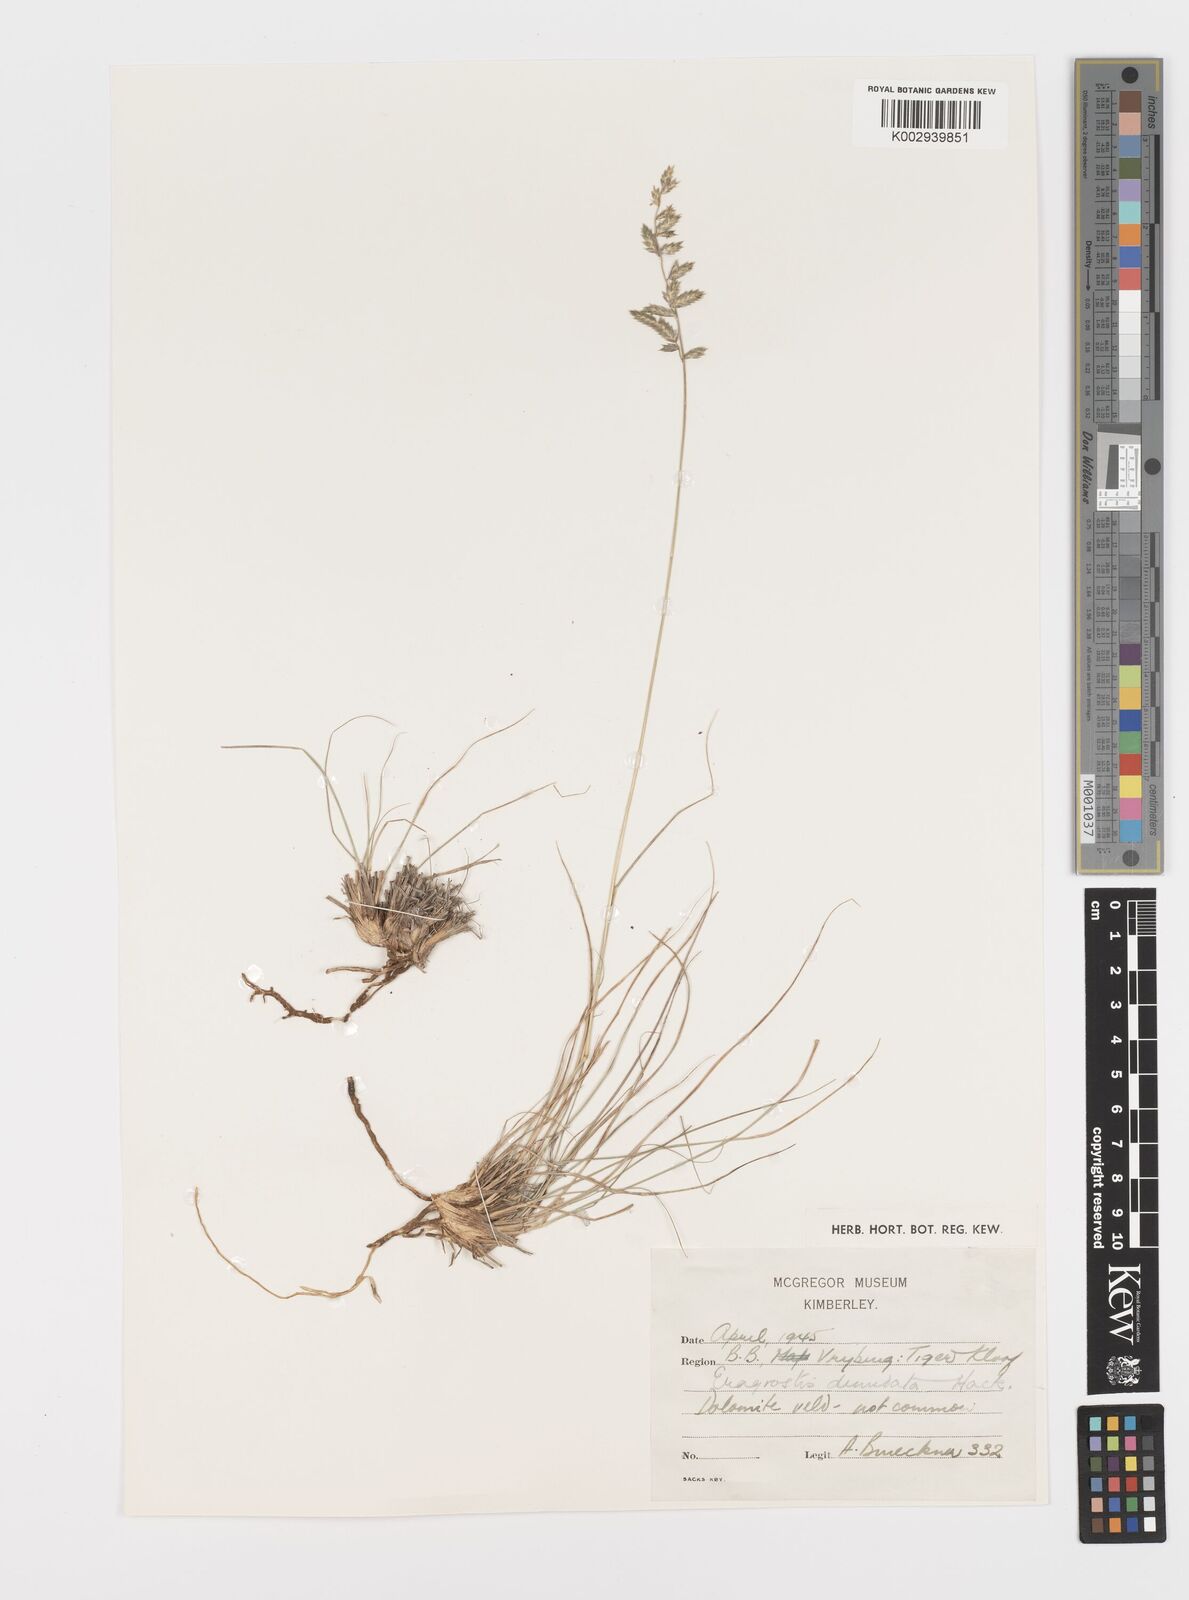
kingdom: Plantae
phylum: Tracheophyta
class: Liliopsida
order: Poales
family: Poaceae
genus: Eragrostis
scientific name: Eragrostis nindensis
